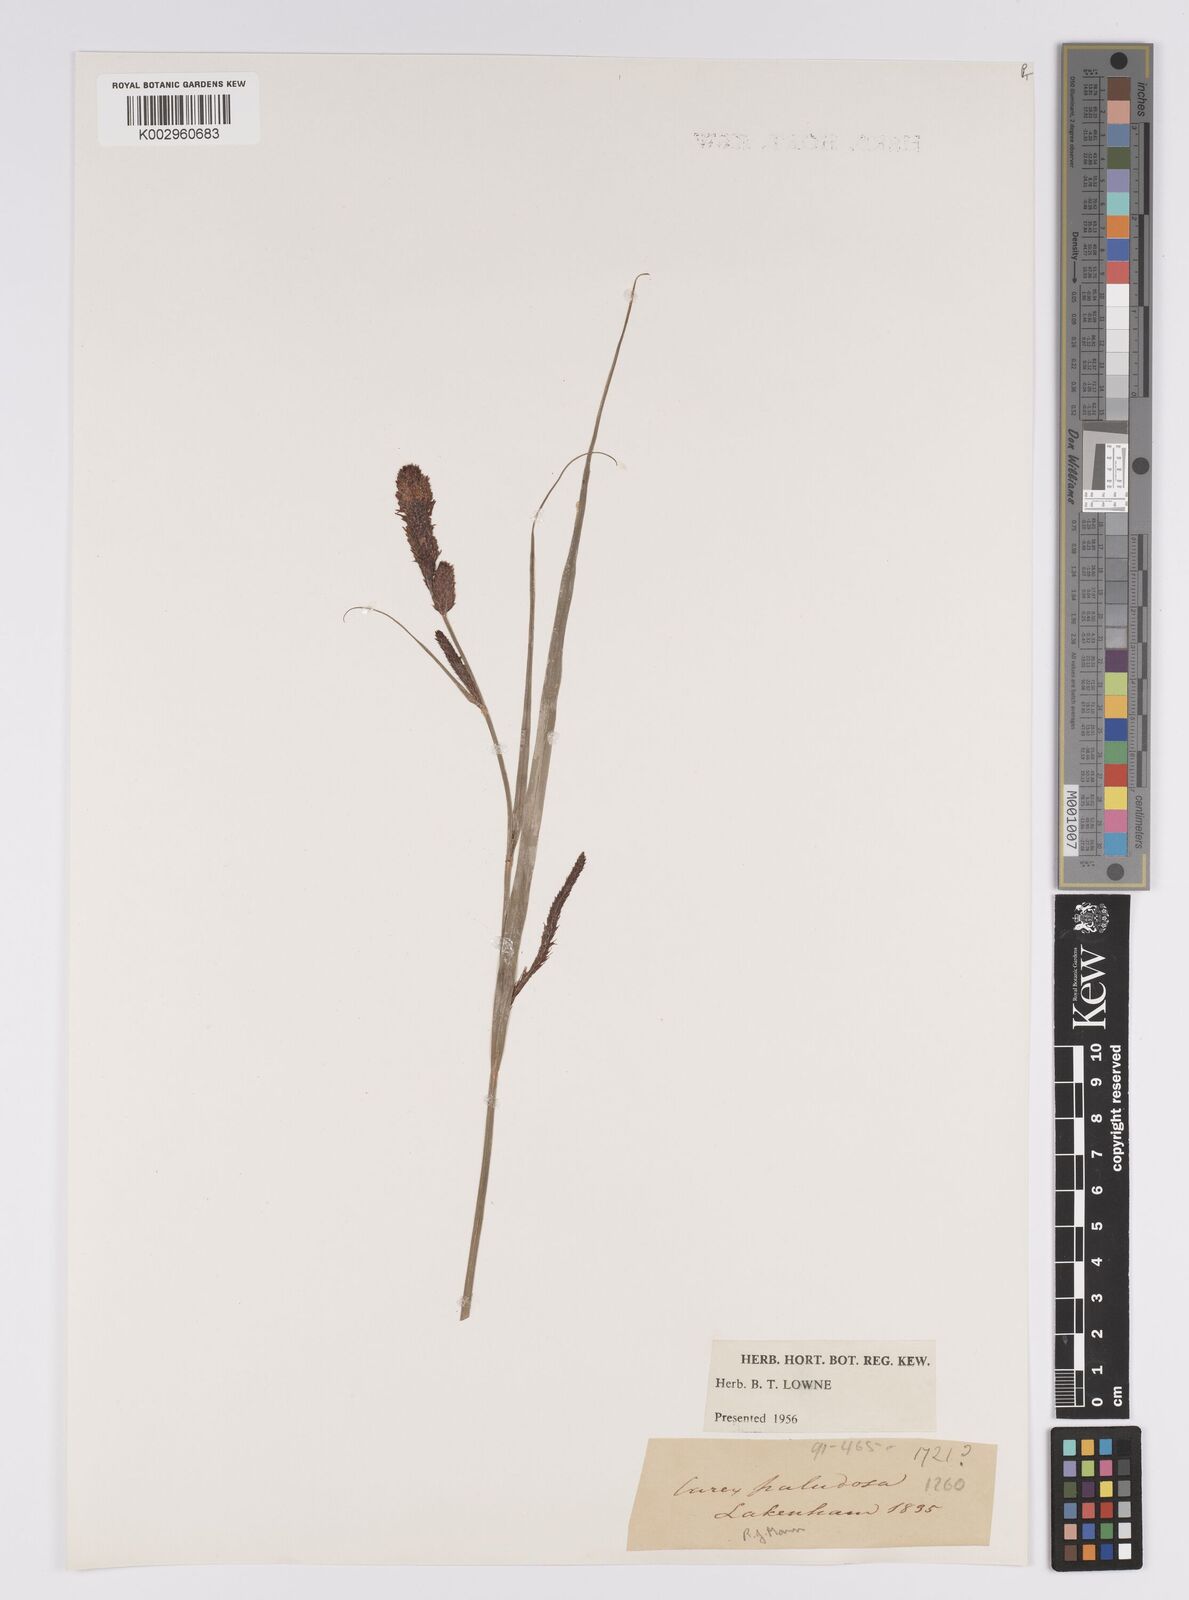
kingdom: Plantae
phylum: Tracheophyta
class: Liliopsida
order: Poales
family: Cyperaceae
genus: Carex
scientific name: Carex acutiformis
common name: Lesser pond-sedge
